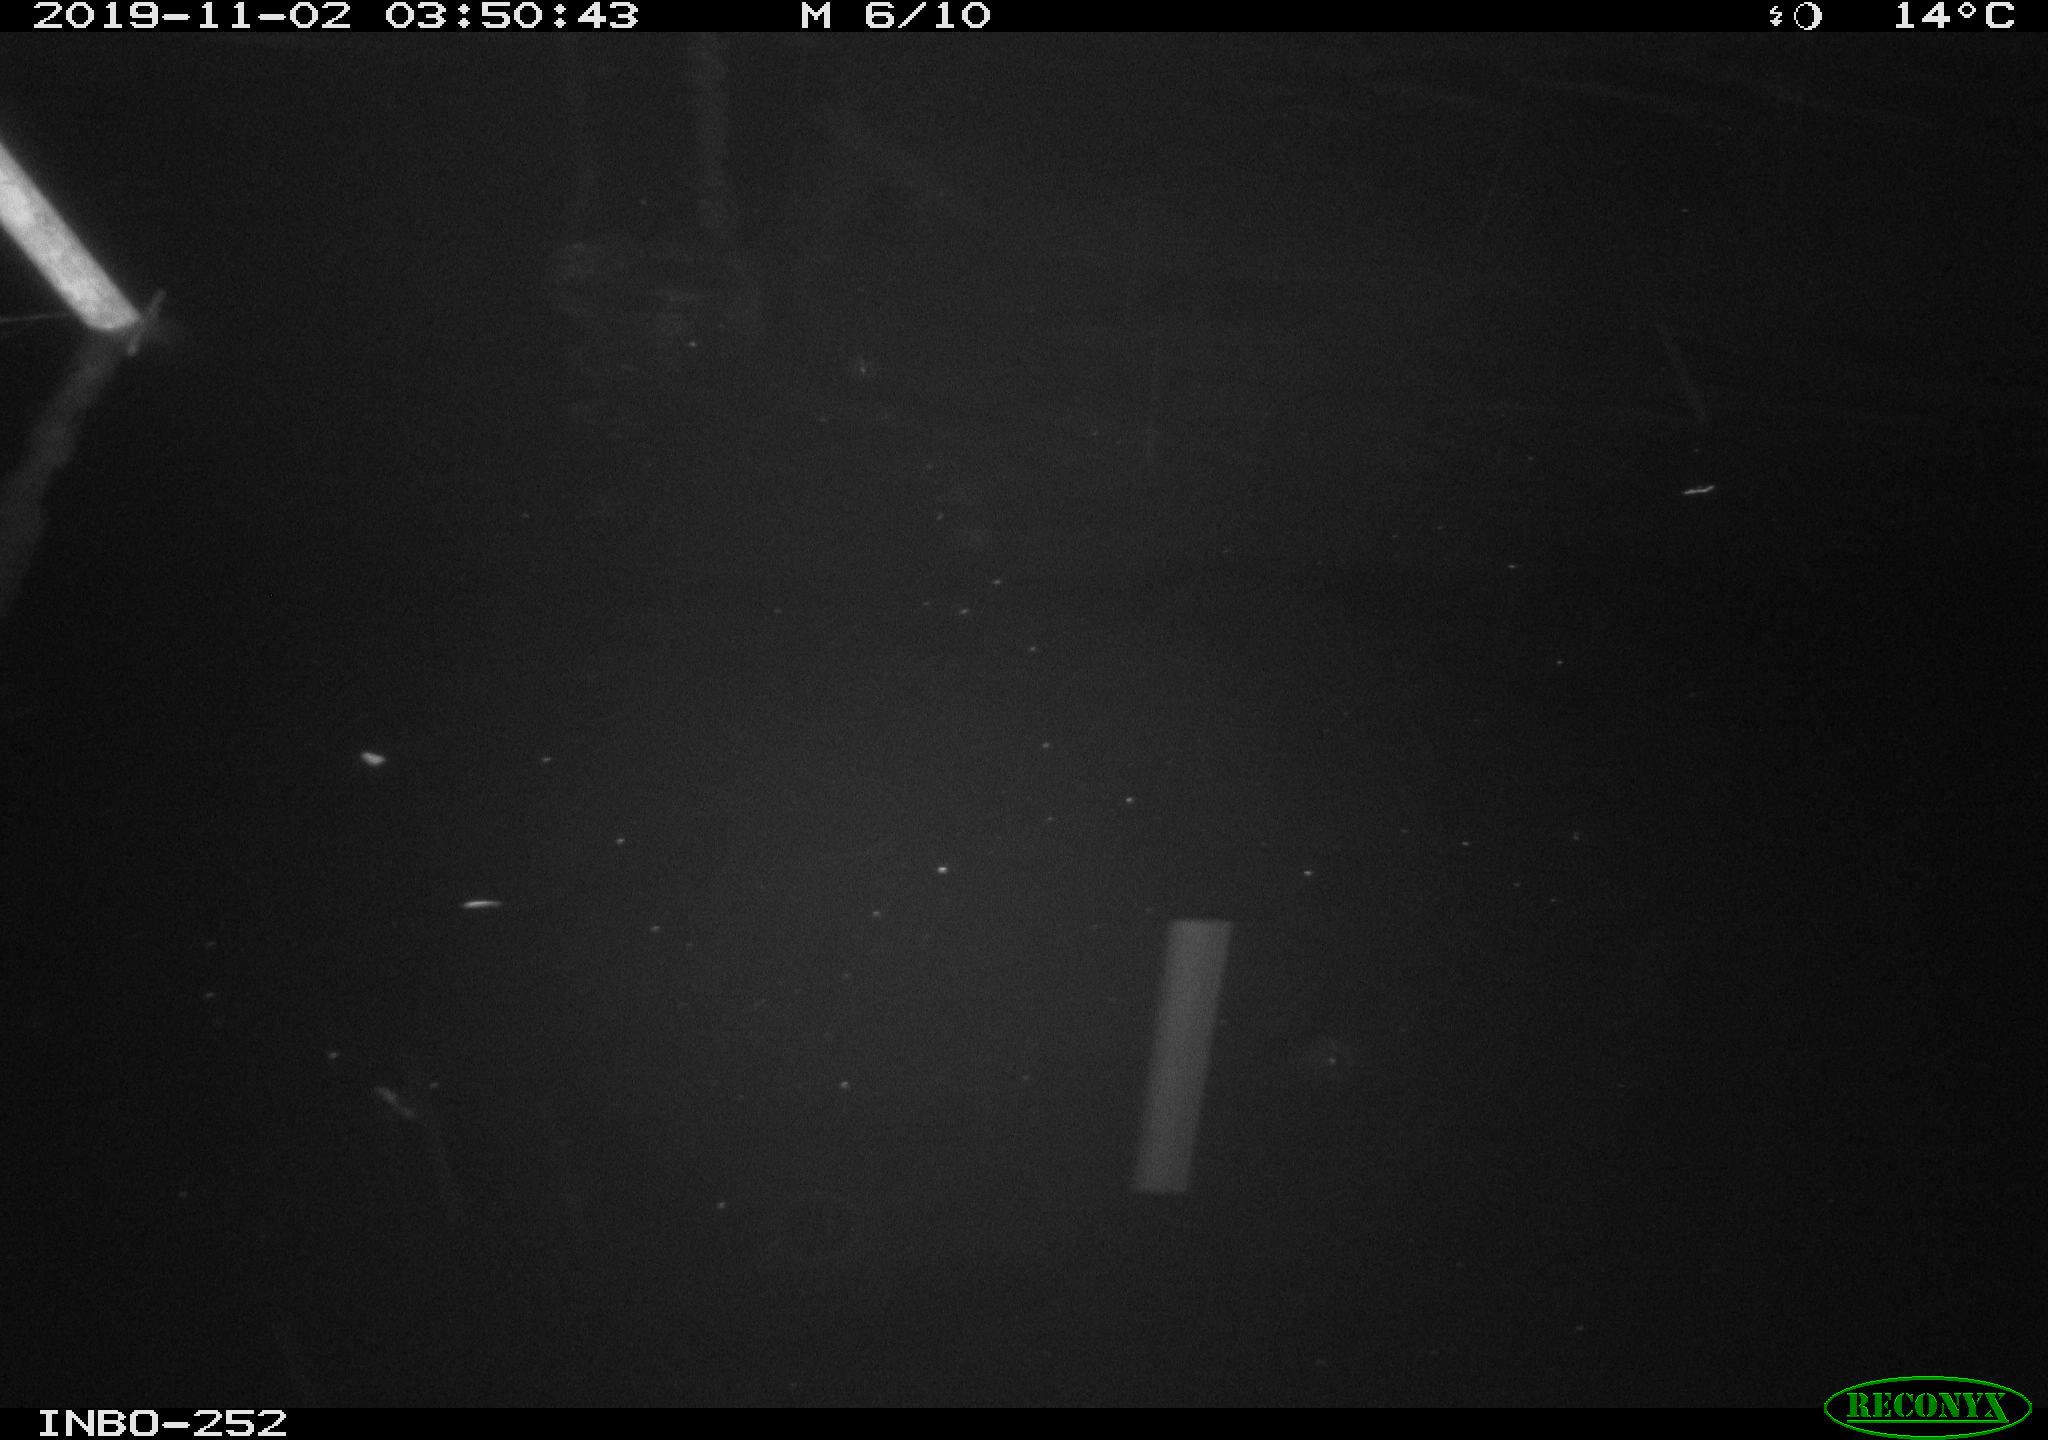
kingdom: Animalia
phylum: Chordata
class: Aves
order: Anseriformes
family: Anatidae
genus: Anas
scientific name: Anas platyrhynchos
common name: Mallard
